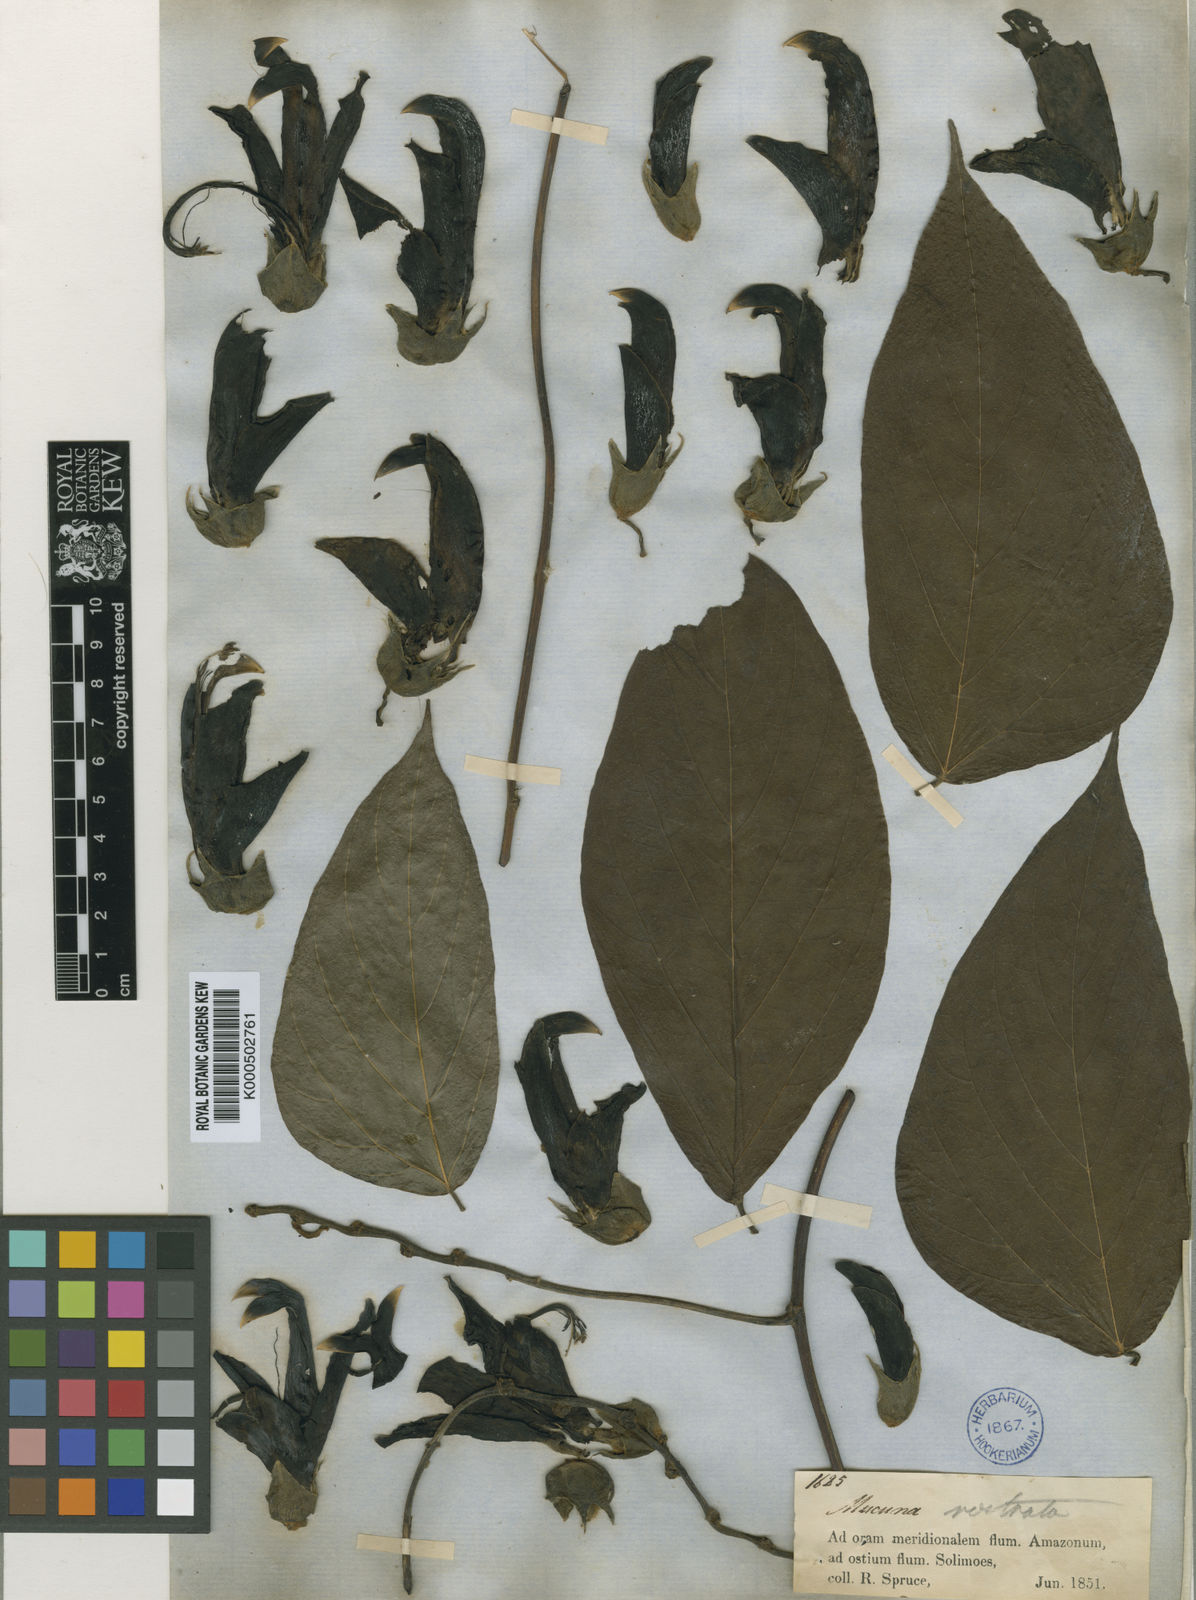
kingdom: Plantae
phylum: Tracheophyta
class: Magnoliopsida
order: Fabales
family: Fabaceae
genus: Mucuna
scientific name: Mucuna rostrata
